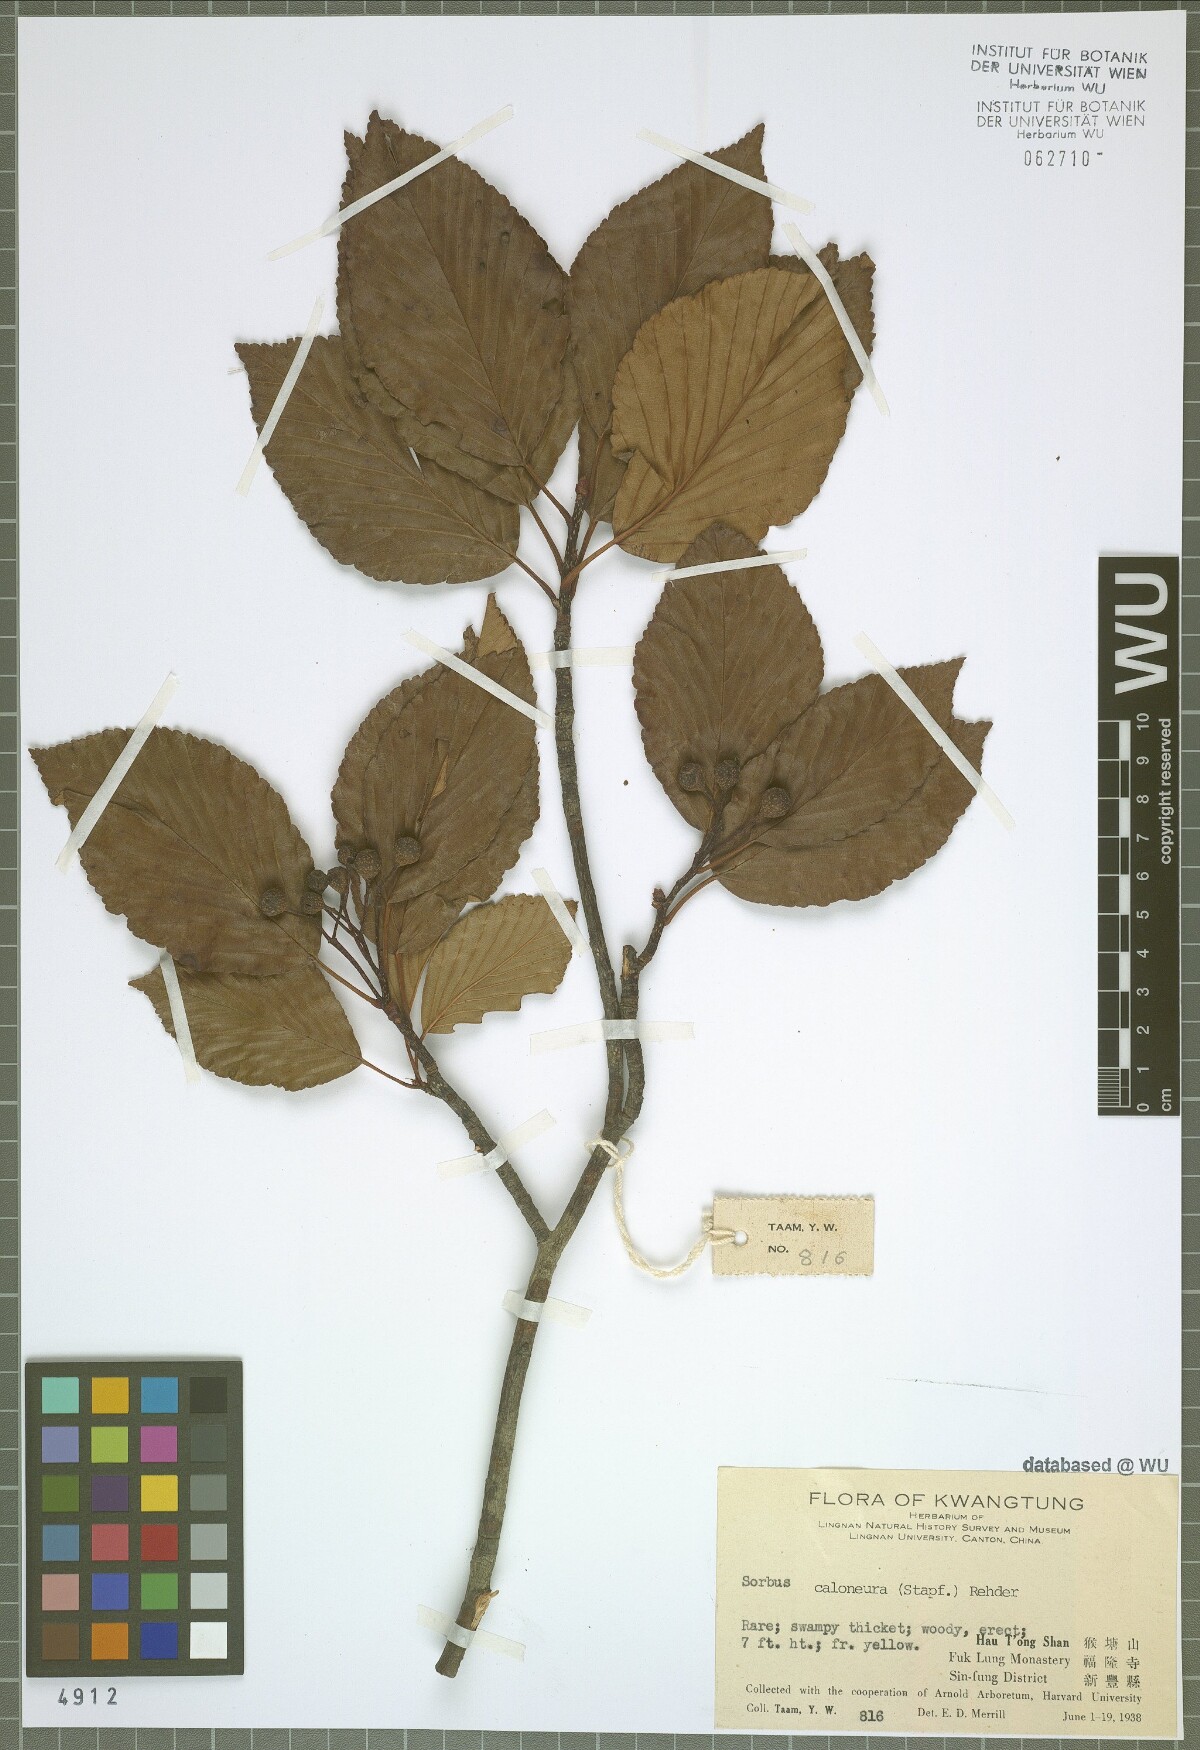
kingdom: Plantae
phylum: Tracheophyta
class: Magnoliopsida
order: Rosales
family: Rosaceae
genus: Sorbus
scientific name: Sorbus caloneura
